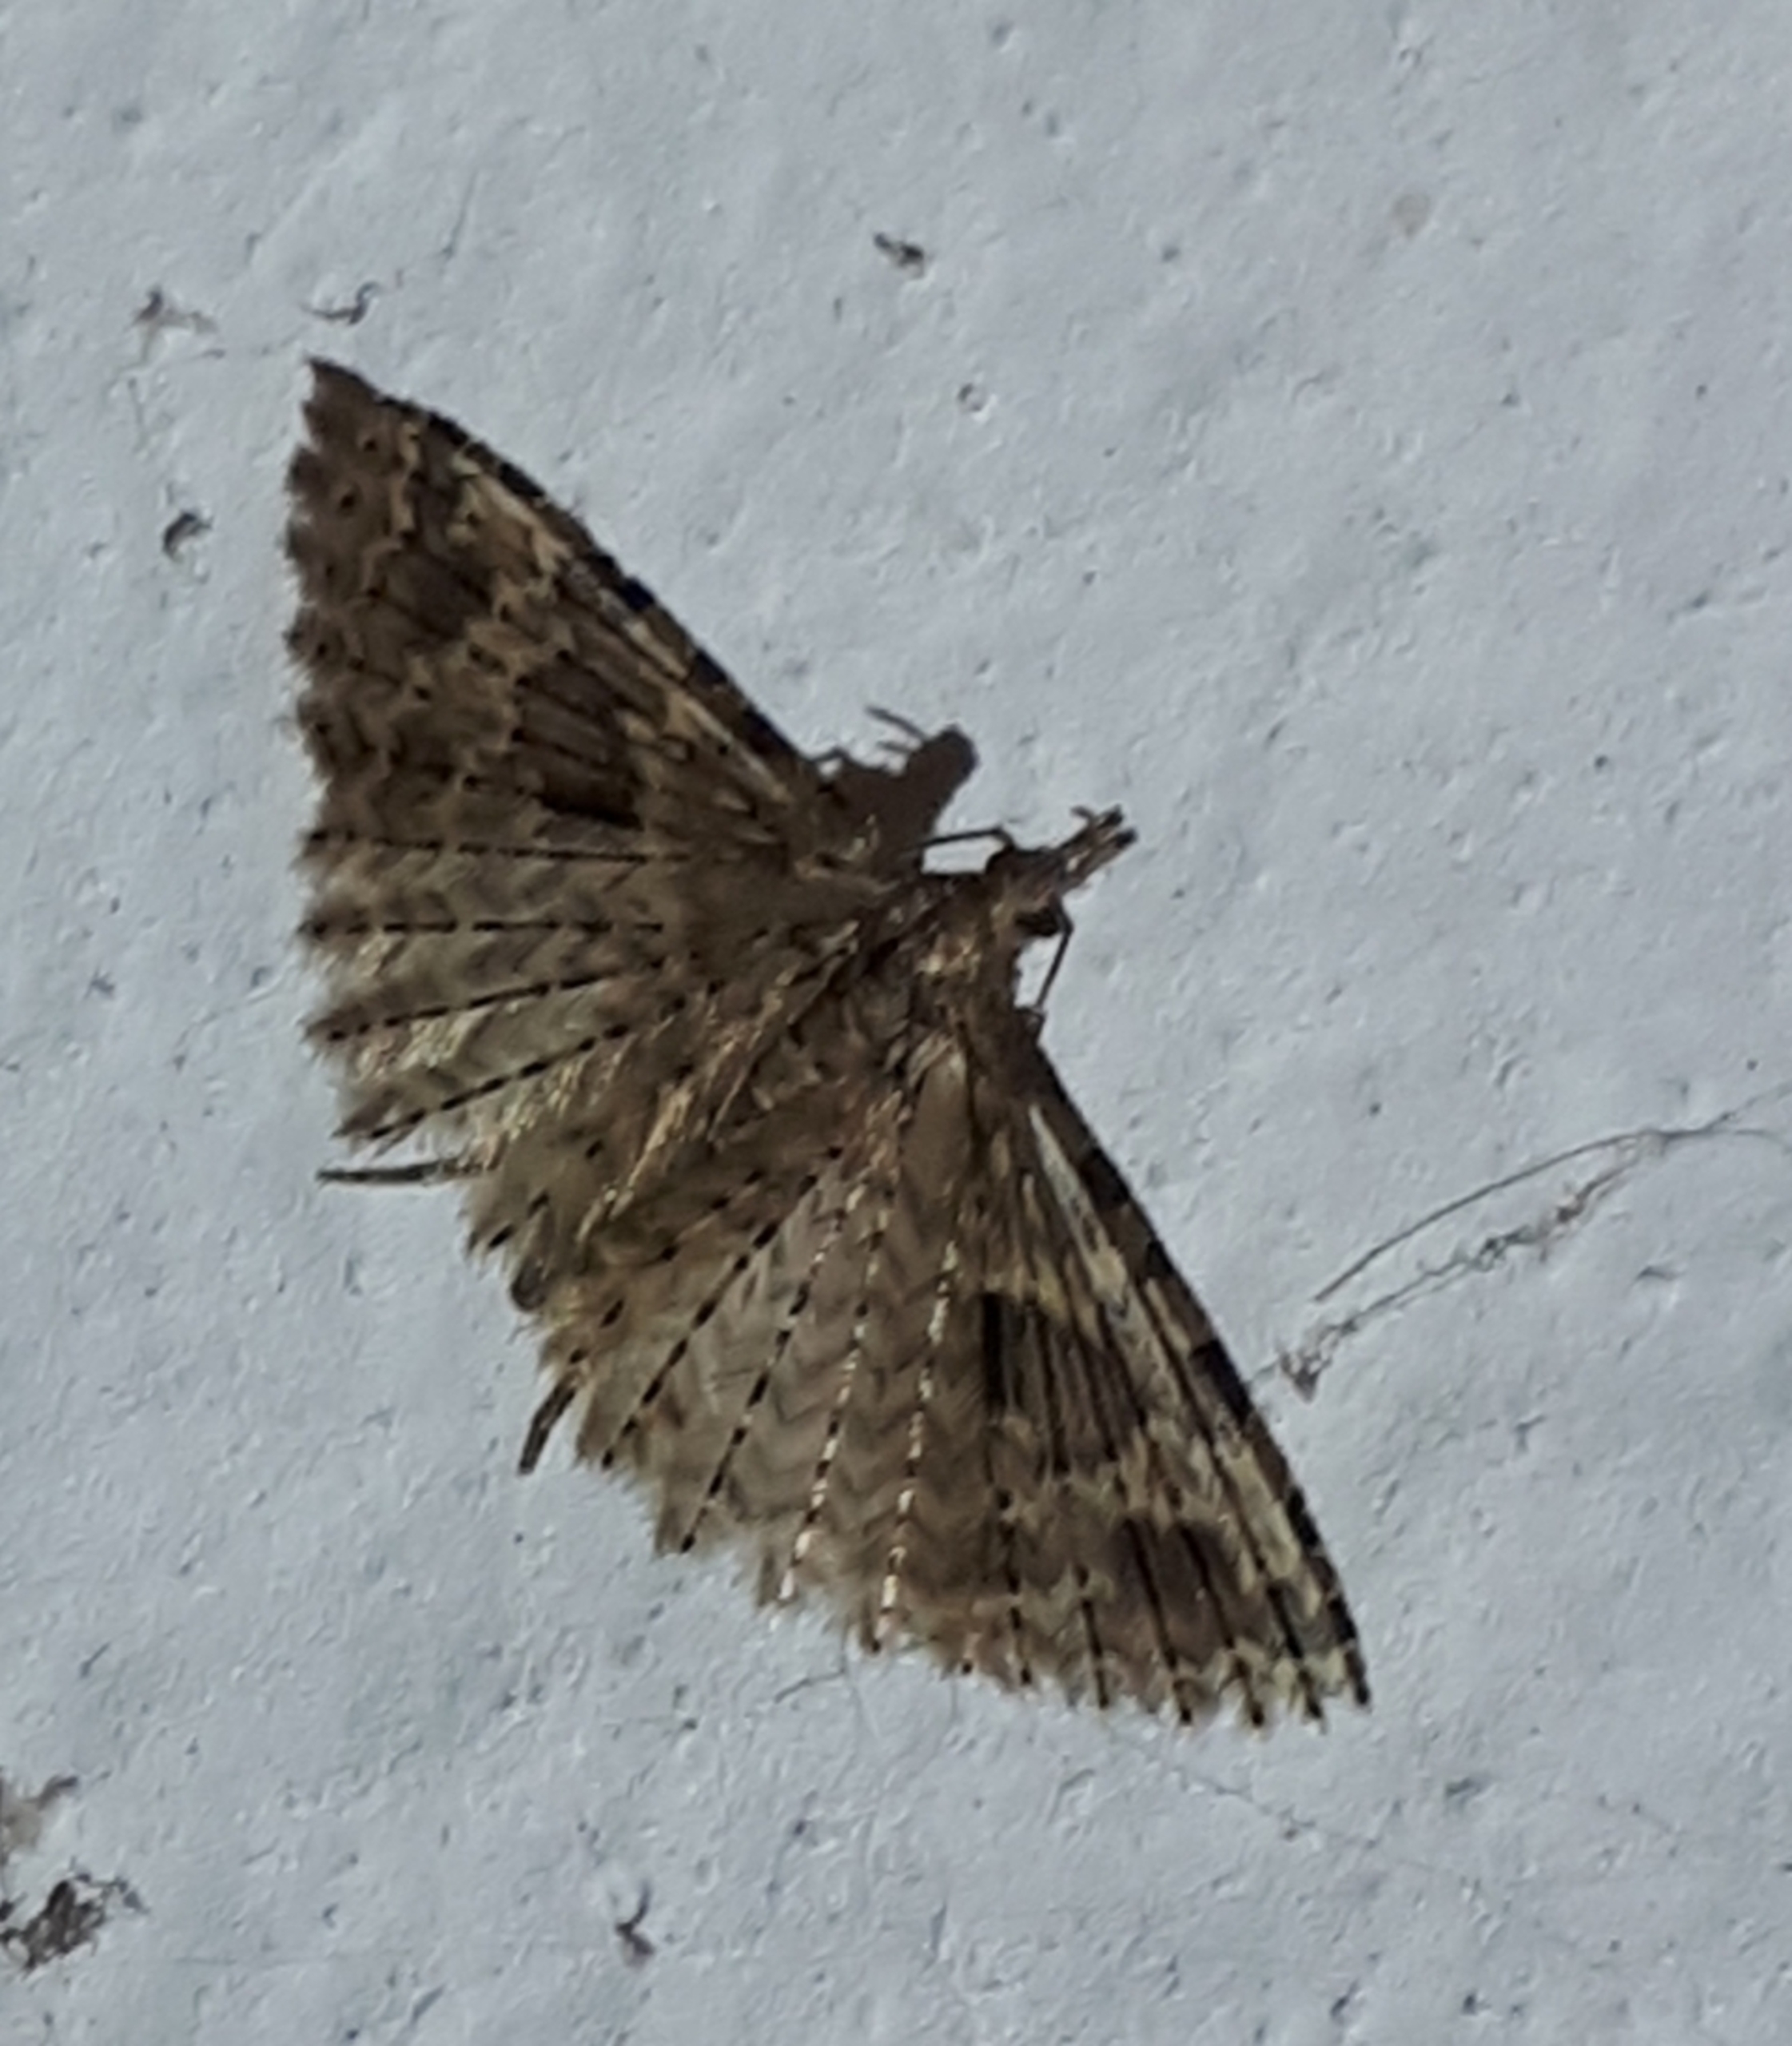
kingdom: Animalia
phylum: Arthropoda
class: Insecta
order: Lepidoptera
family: Alucitidae
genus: Alucita
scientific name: Alucita hexadactyla
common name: Kaprifoliefjermøl
